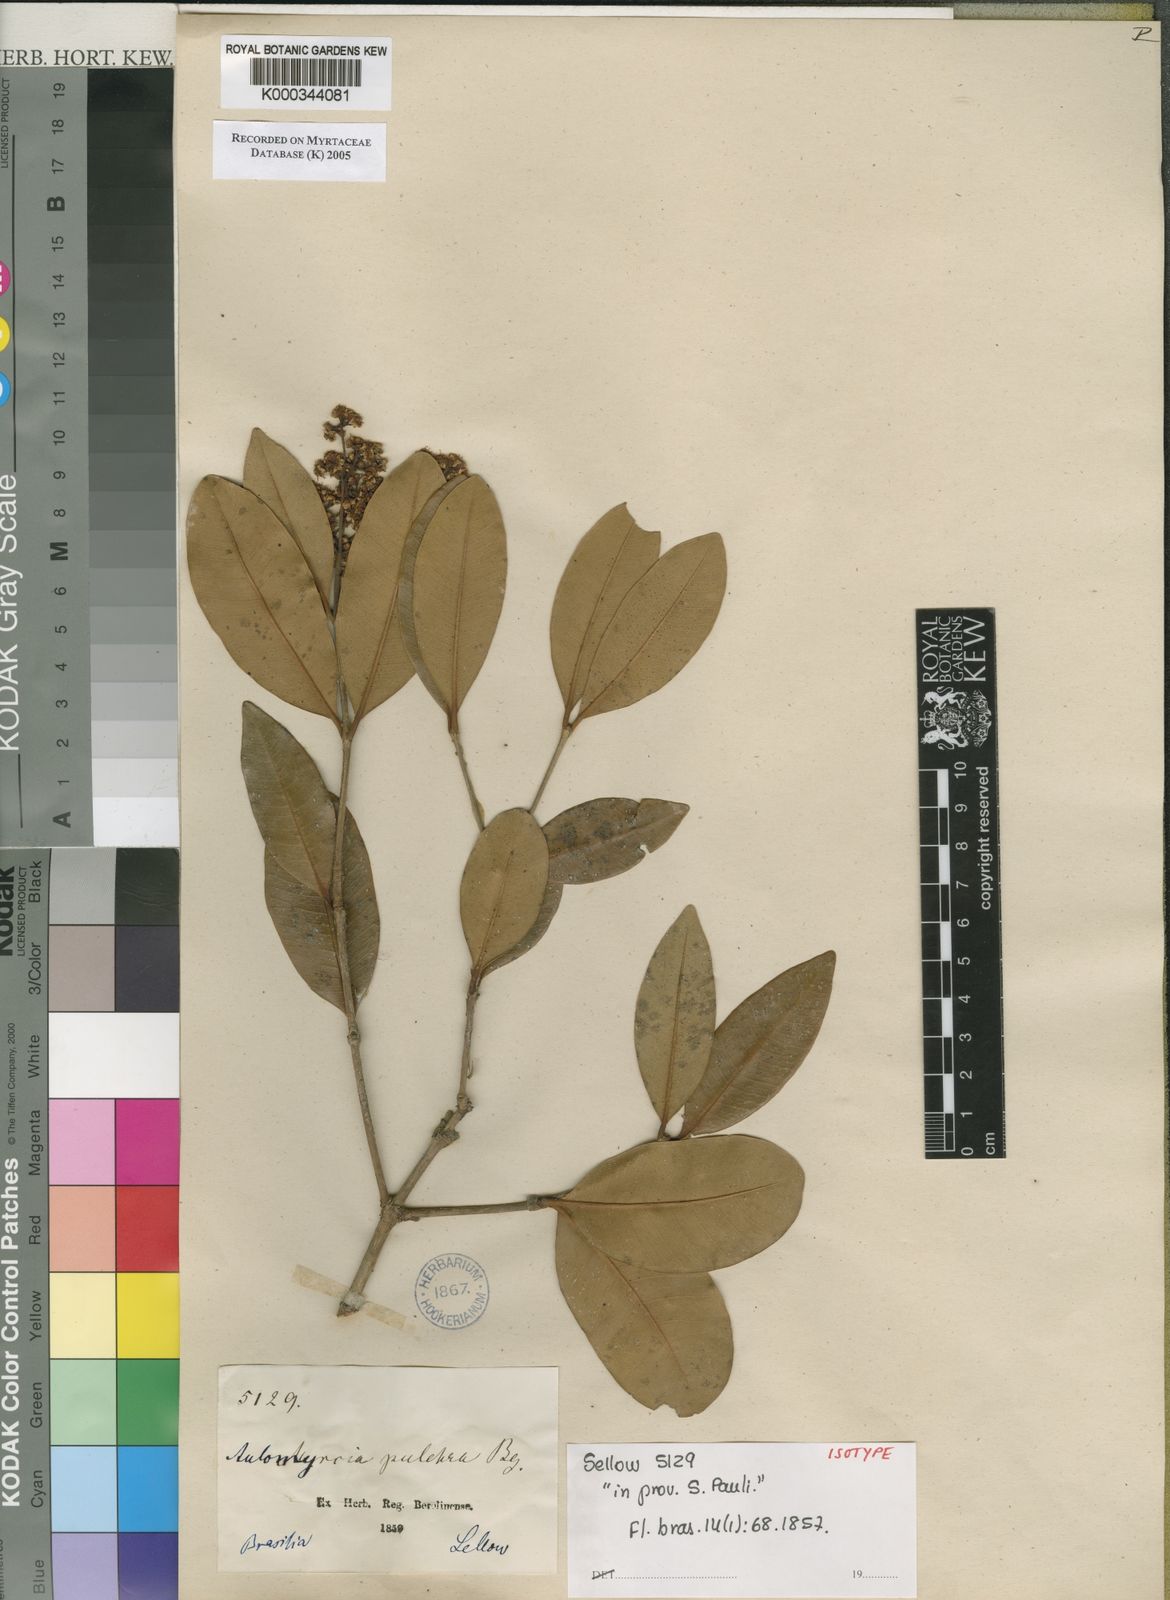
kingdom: Plantae
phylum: Tracheophyta
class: Magnoliopsida
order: Myrtales
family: Myrtaceae
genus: Myrcia
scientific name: Myrcia pulchra
